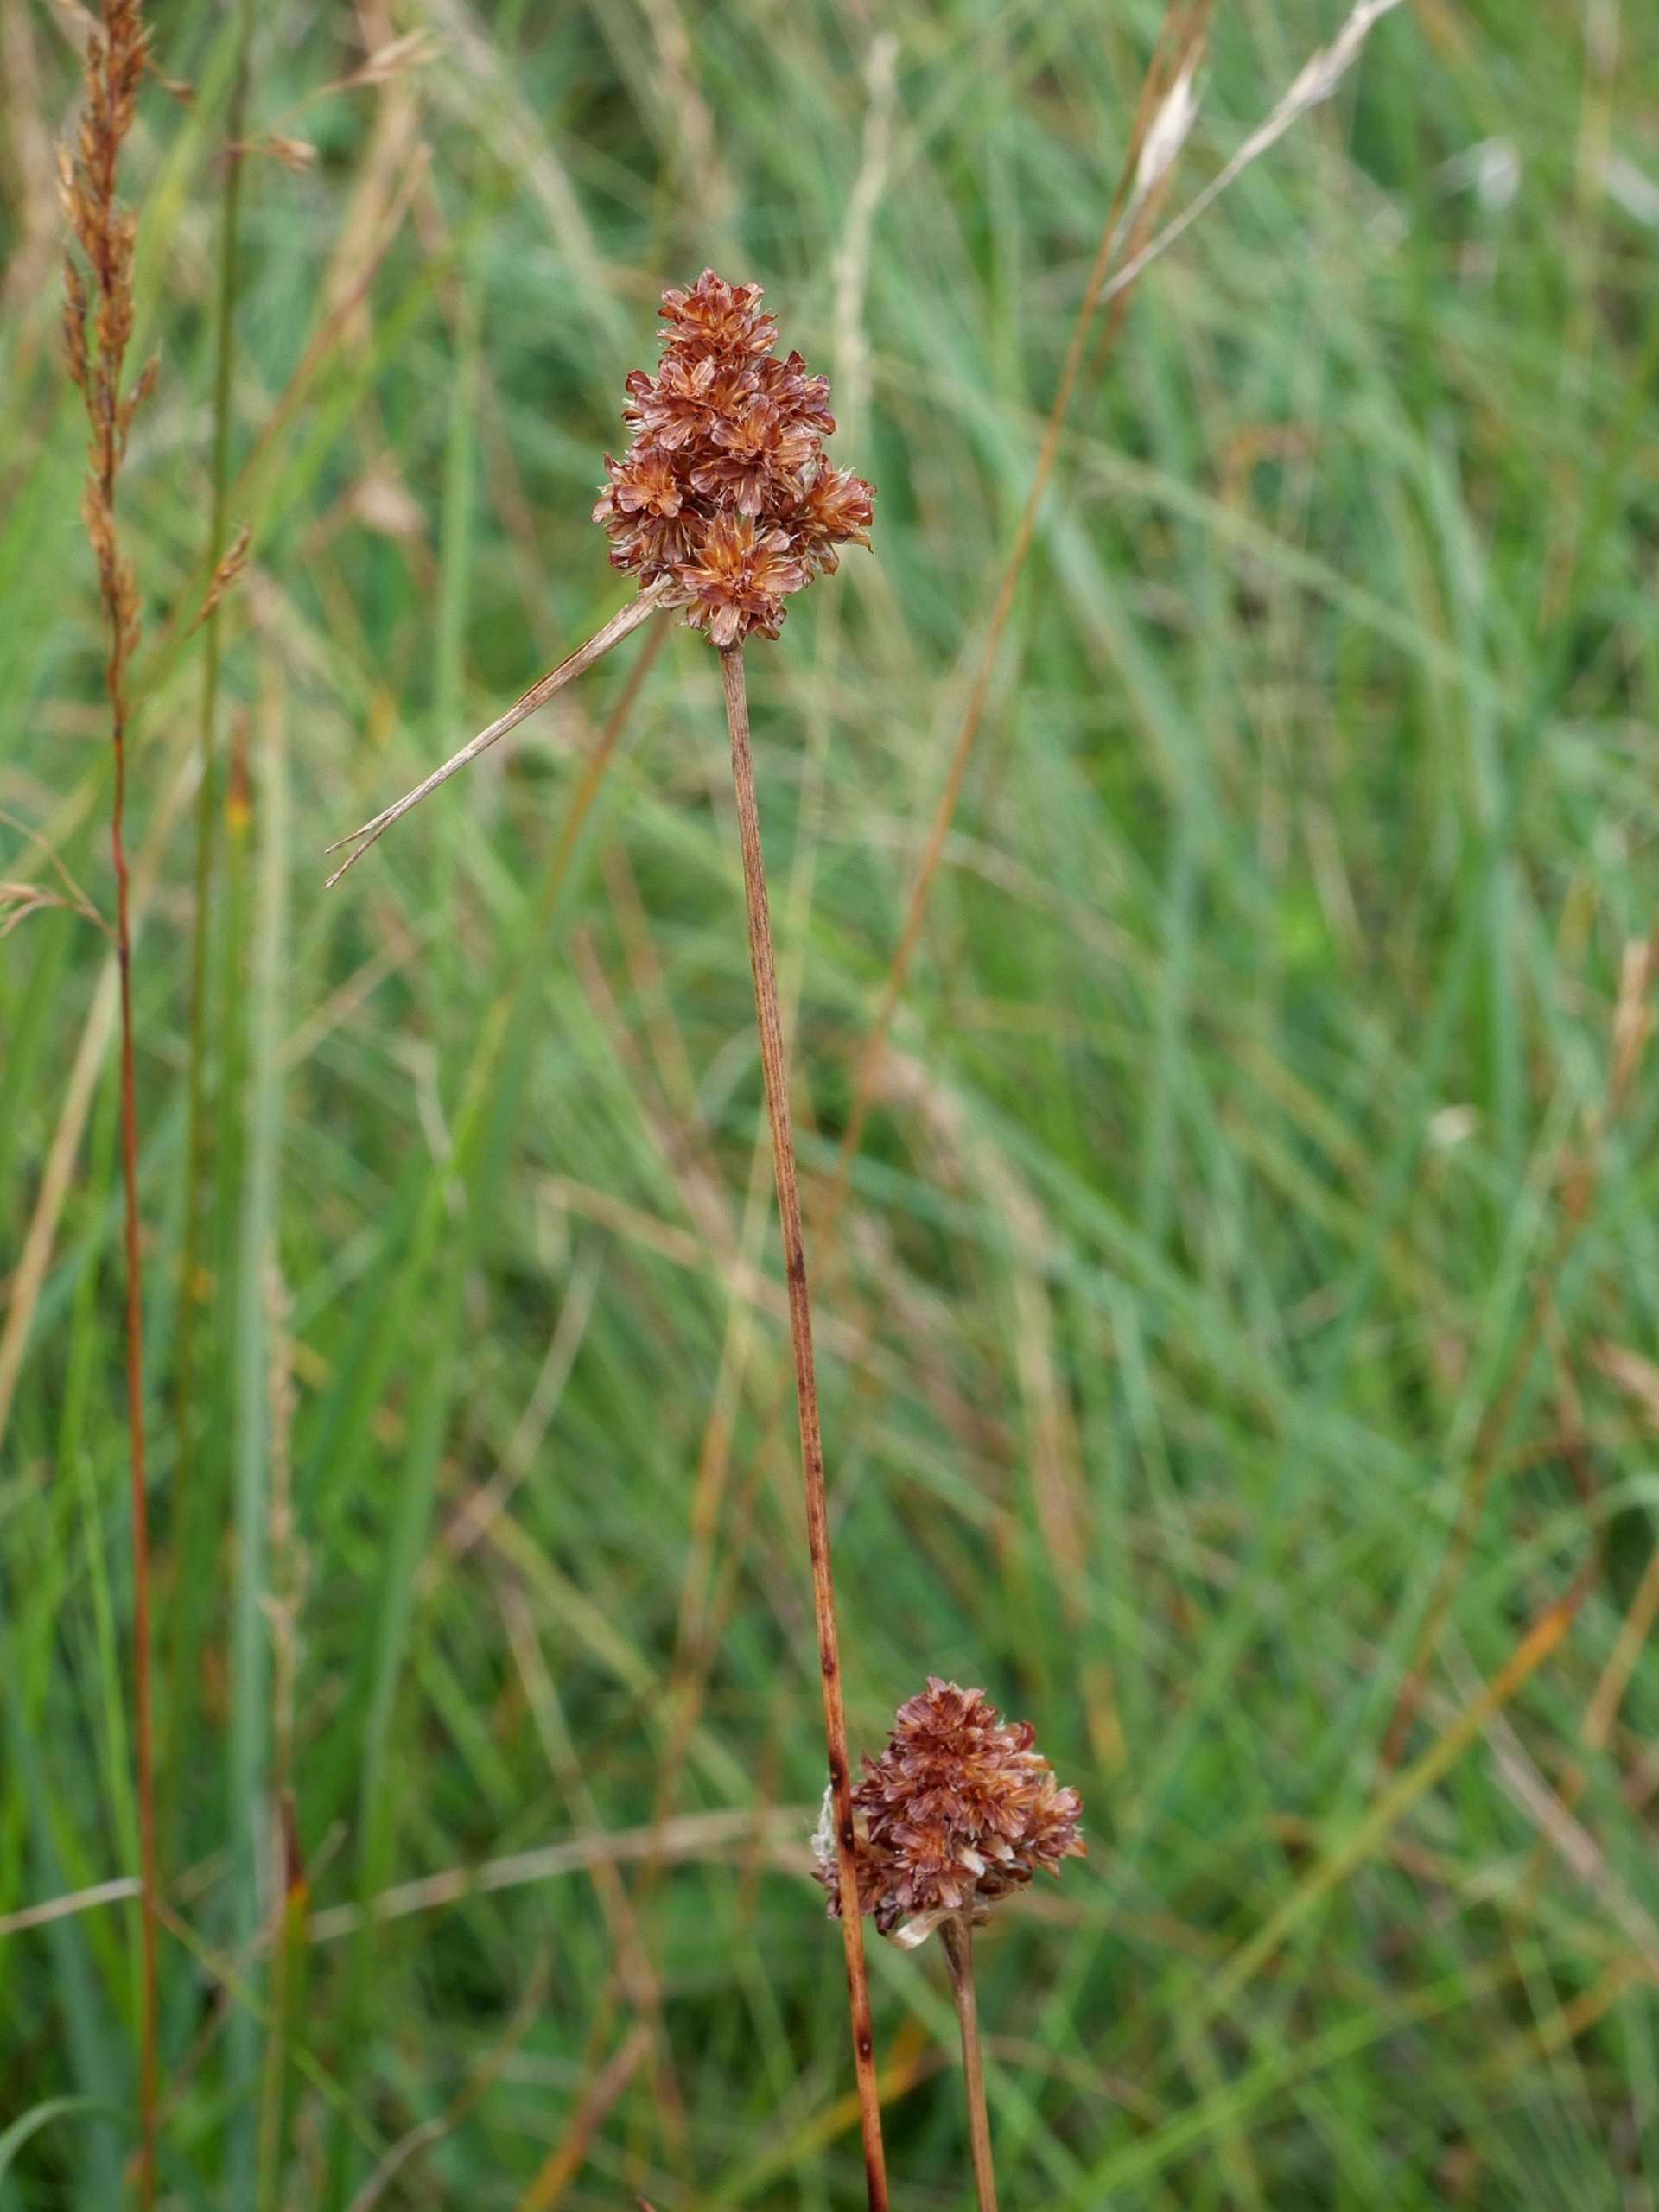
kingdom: Plantae
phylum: Tracheophyta
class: Liliopsida
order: Poales
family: Juncaceae
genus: Luzula
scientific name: Luzula congesta
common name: Hoved-frytle
